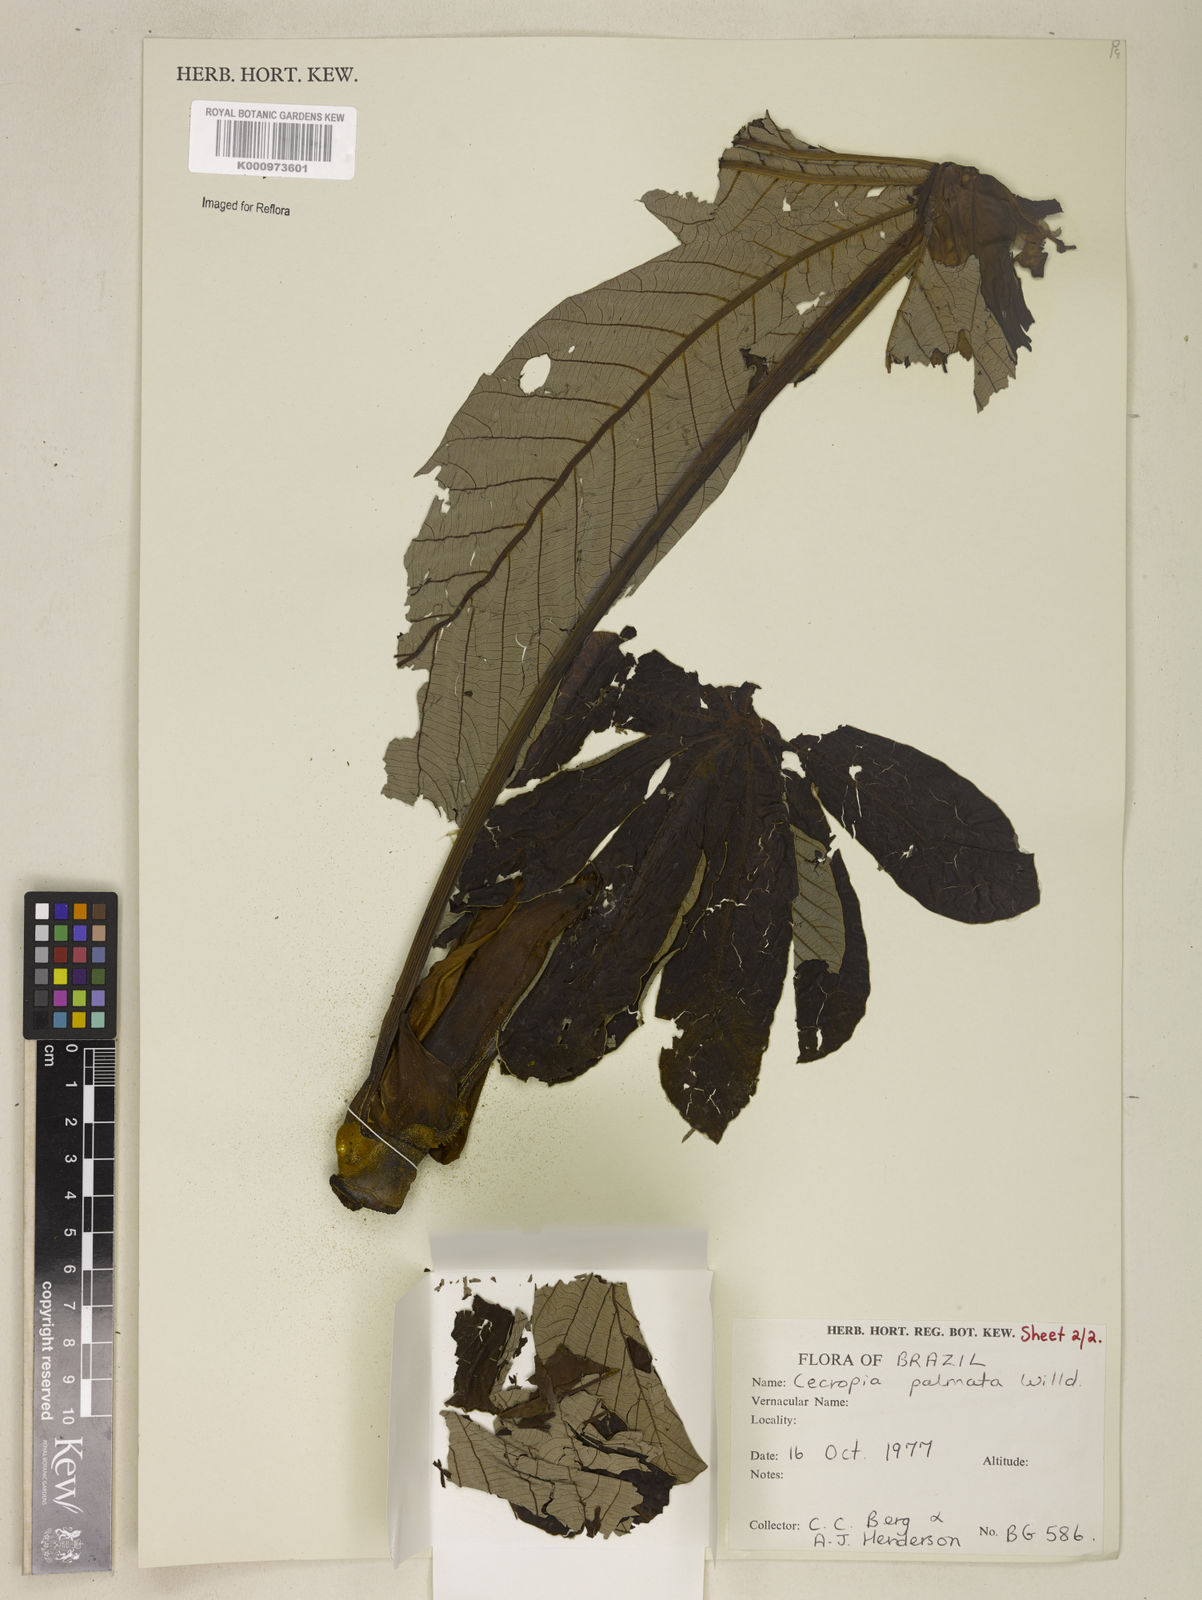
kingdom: Plantae
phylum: Tracheophyta
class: Magnoliopsida
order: Rosales
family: Urticaceae
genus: Cecropia
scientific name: Cecropia palmata
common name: Trumpet tree
